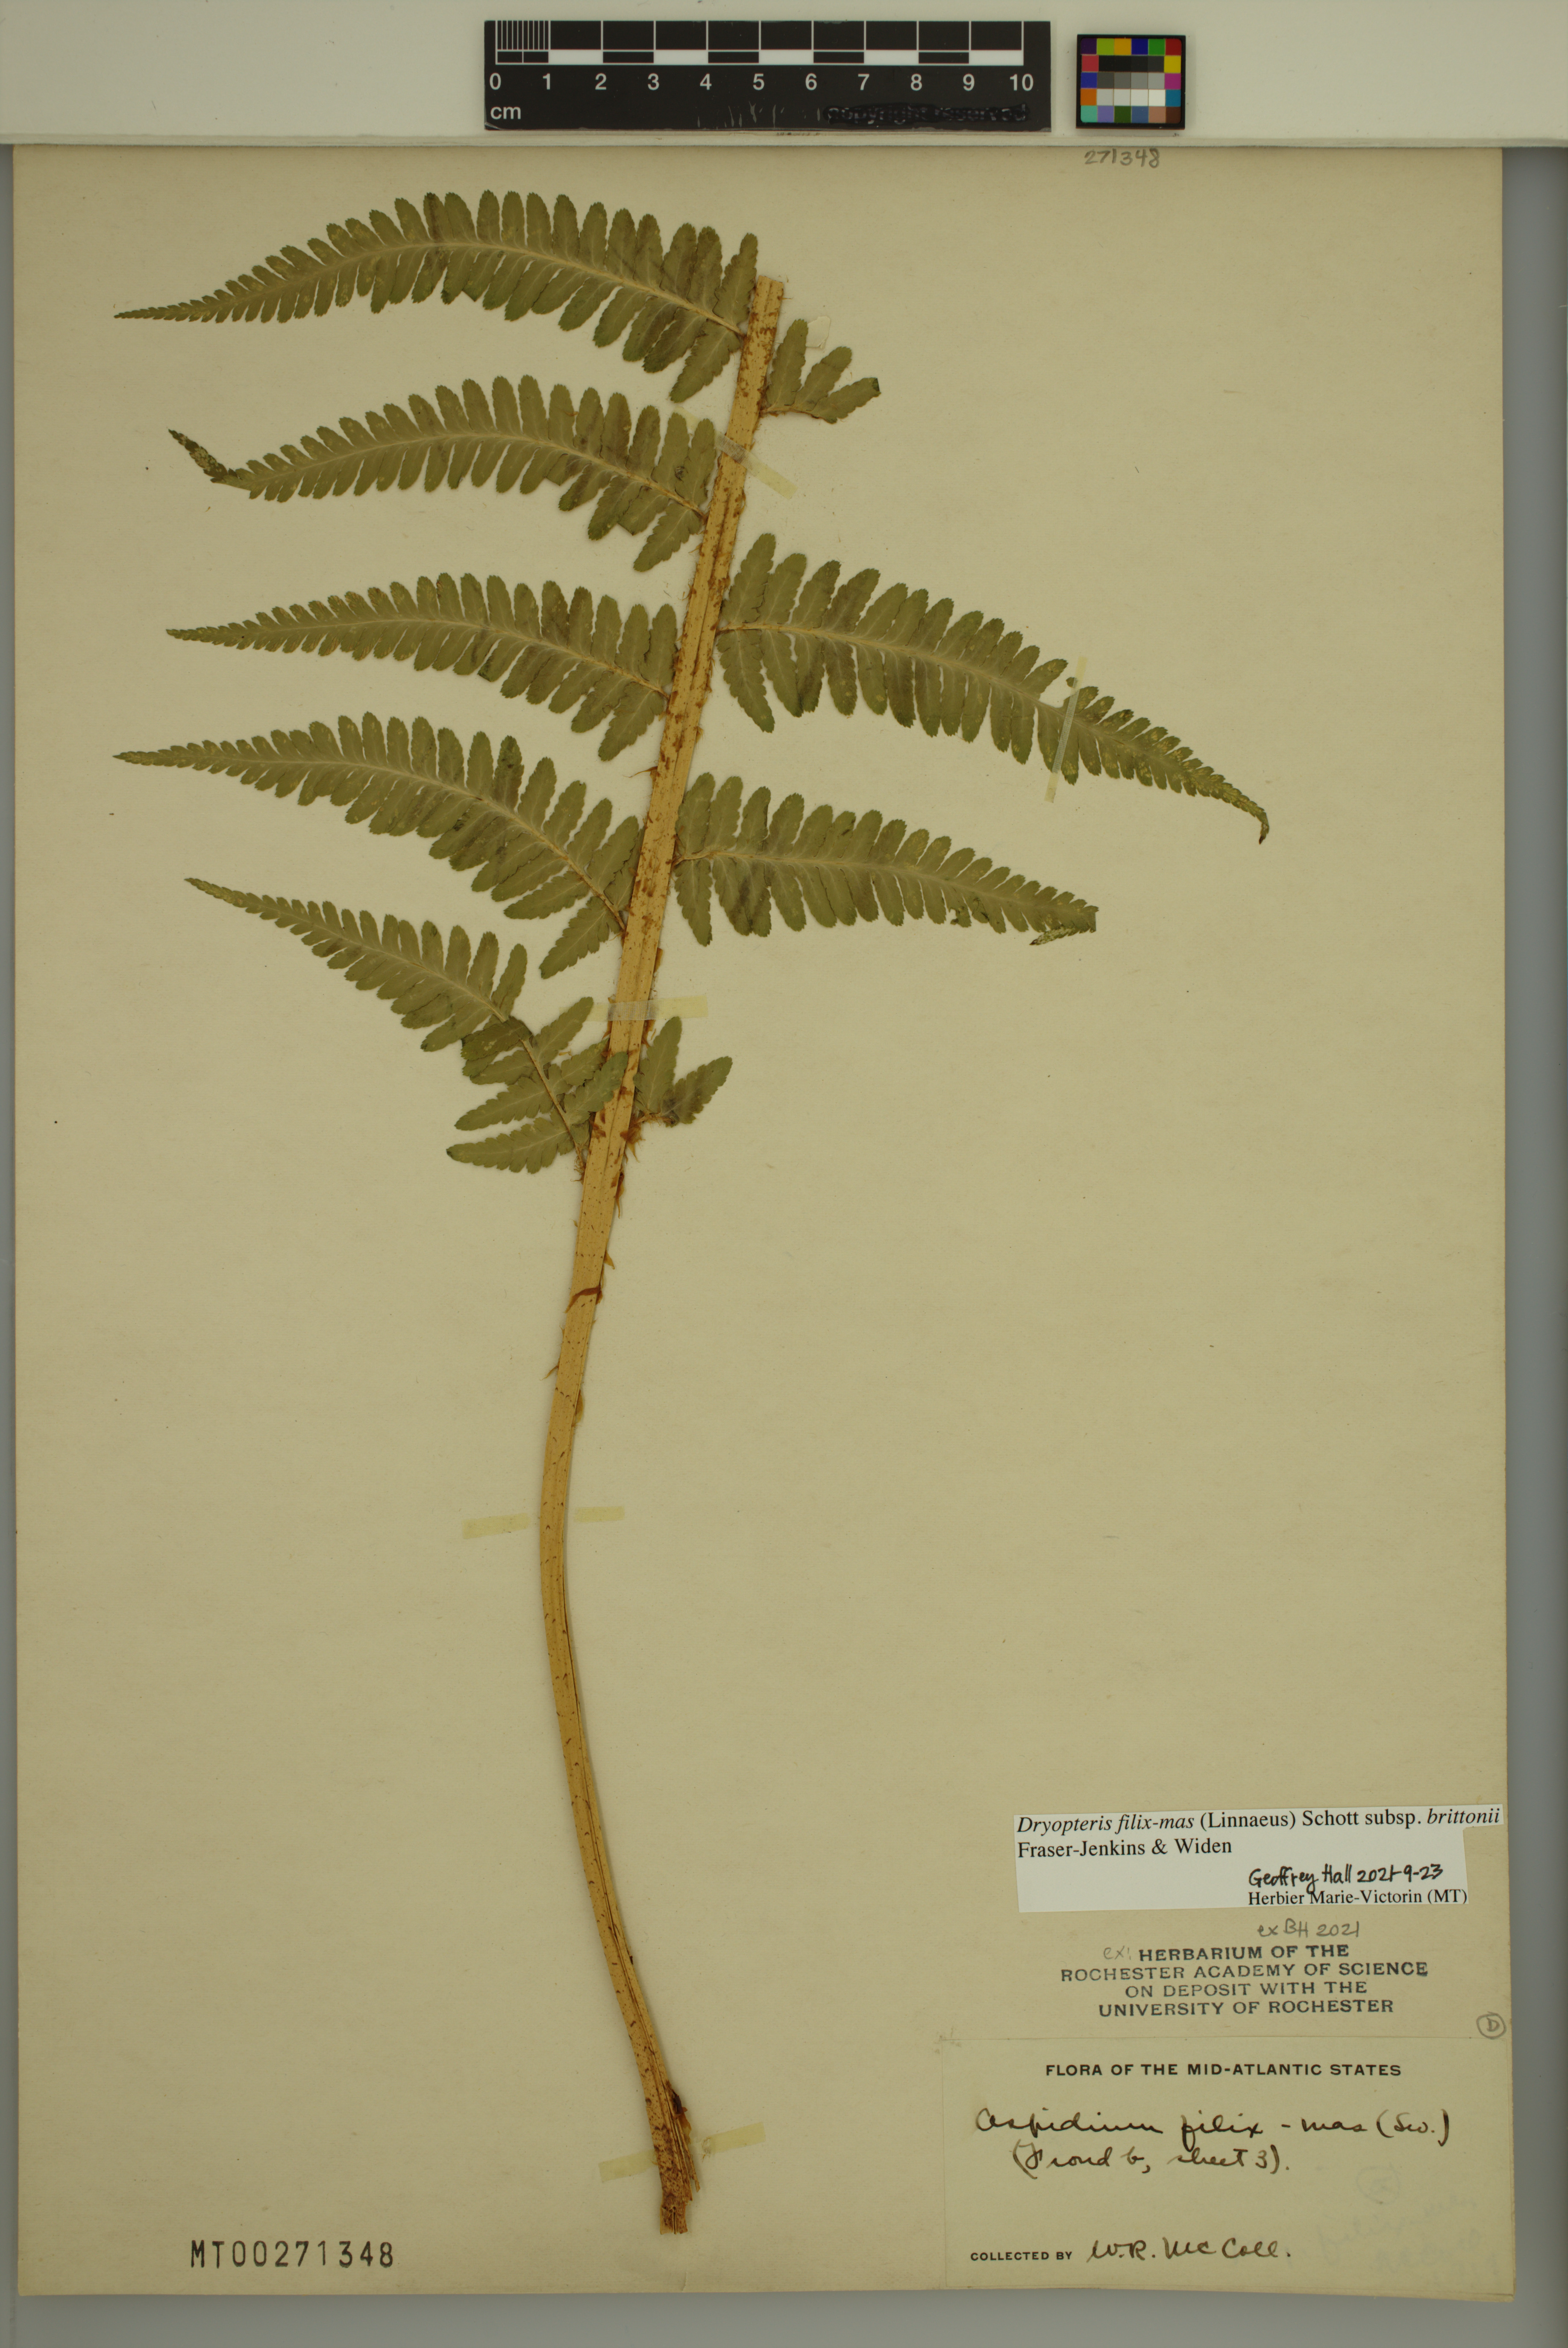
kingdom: Plantae
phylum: Tracheophyta
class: Polypodiopsida
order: Polypodiales
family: Dryopteridaceae
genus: Dryopteris
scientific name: Dryopteris filix-mas
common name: Male fern
